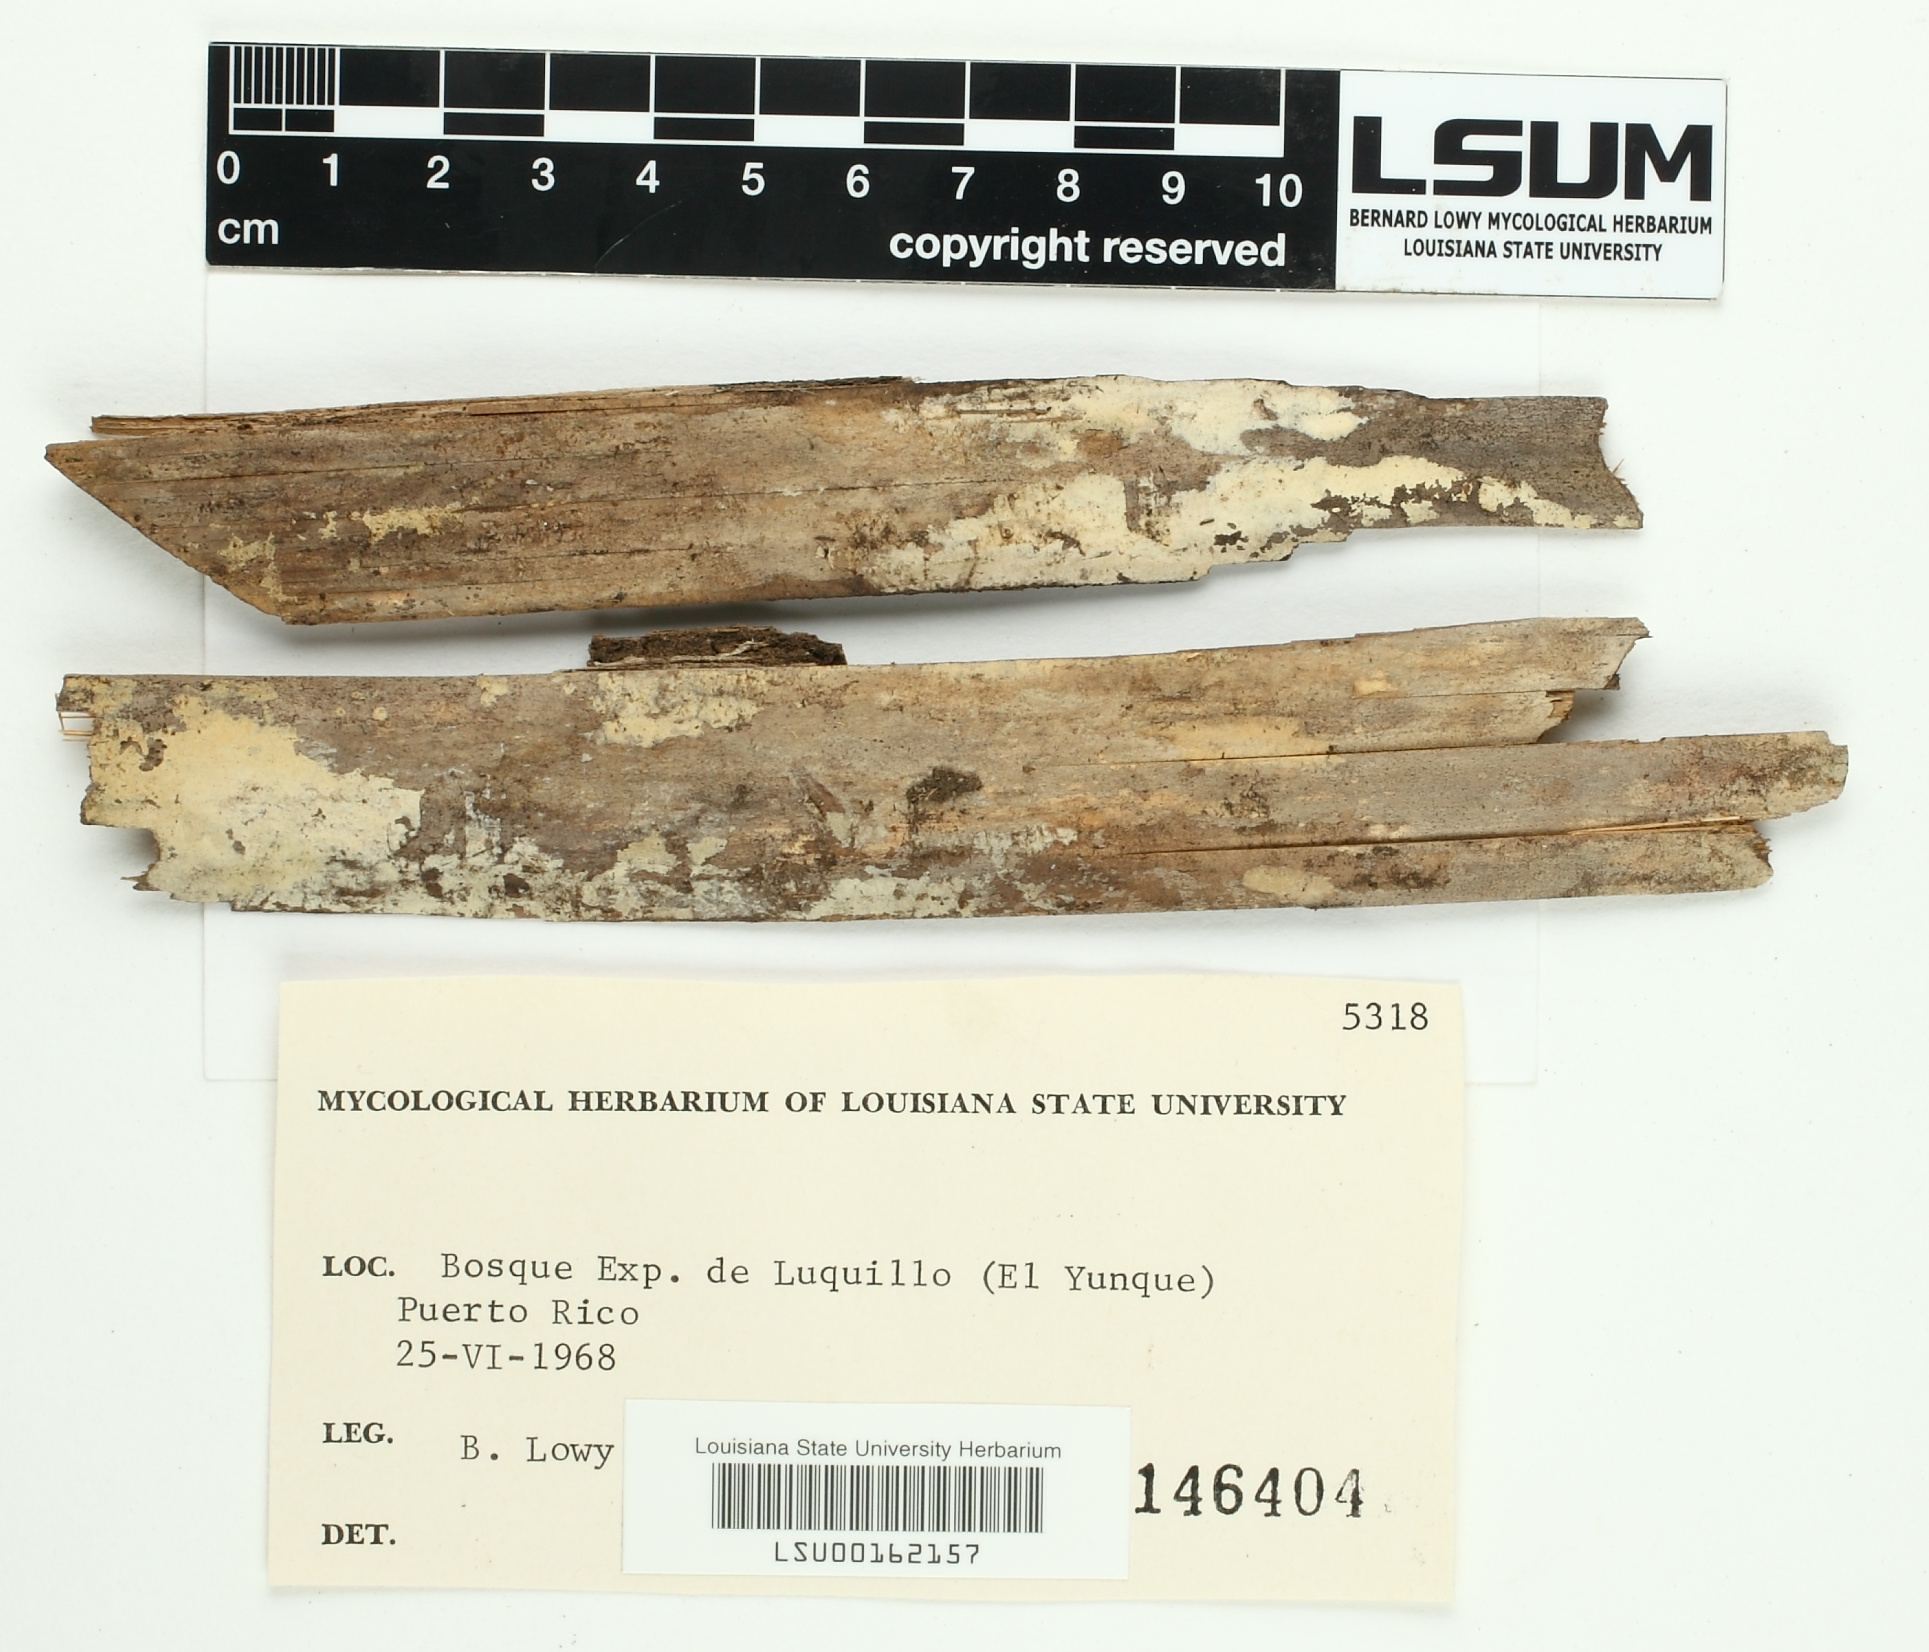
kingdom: Fungi
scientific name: Fungi
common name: Fungi
